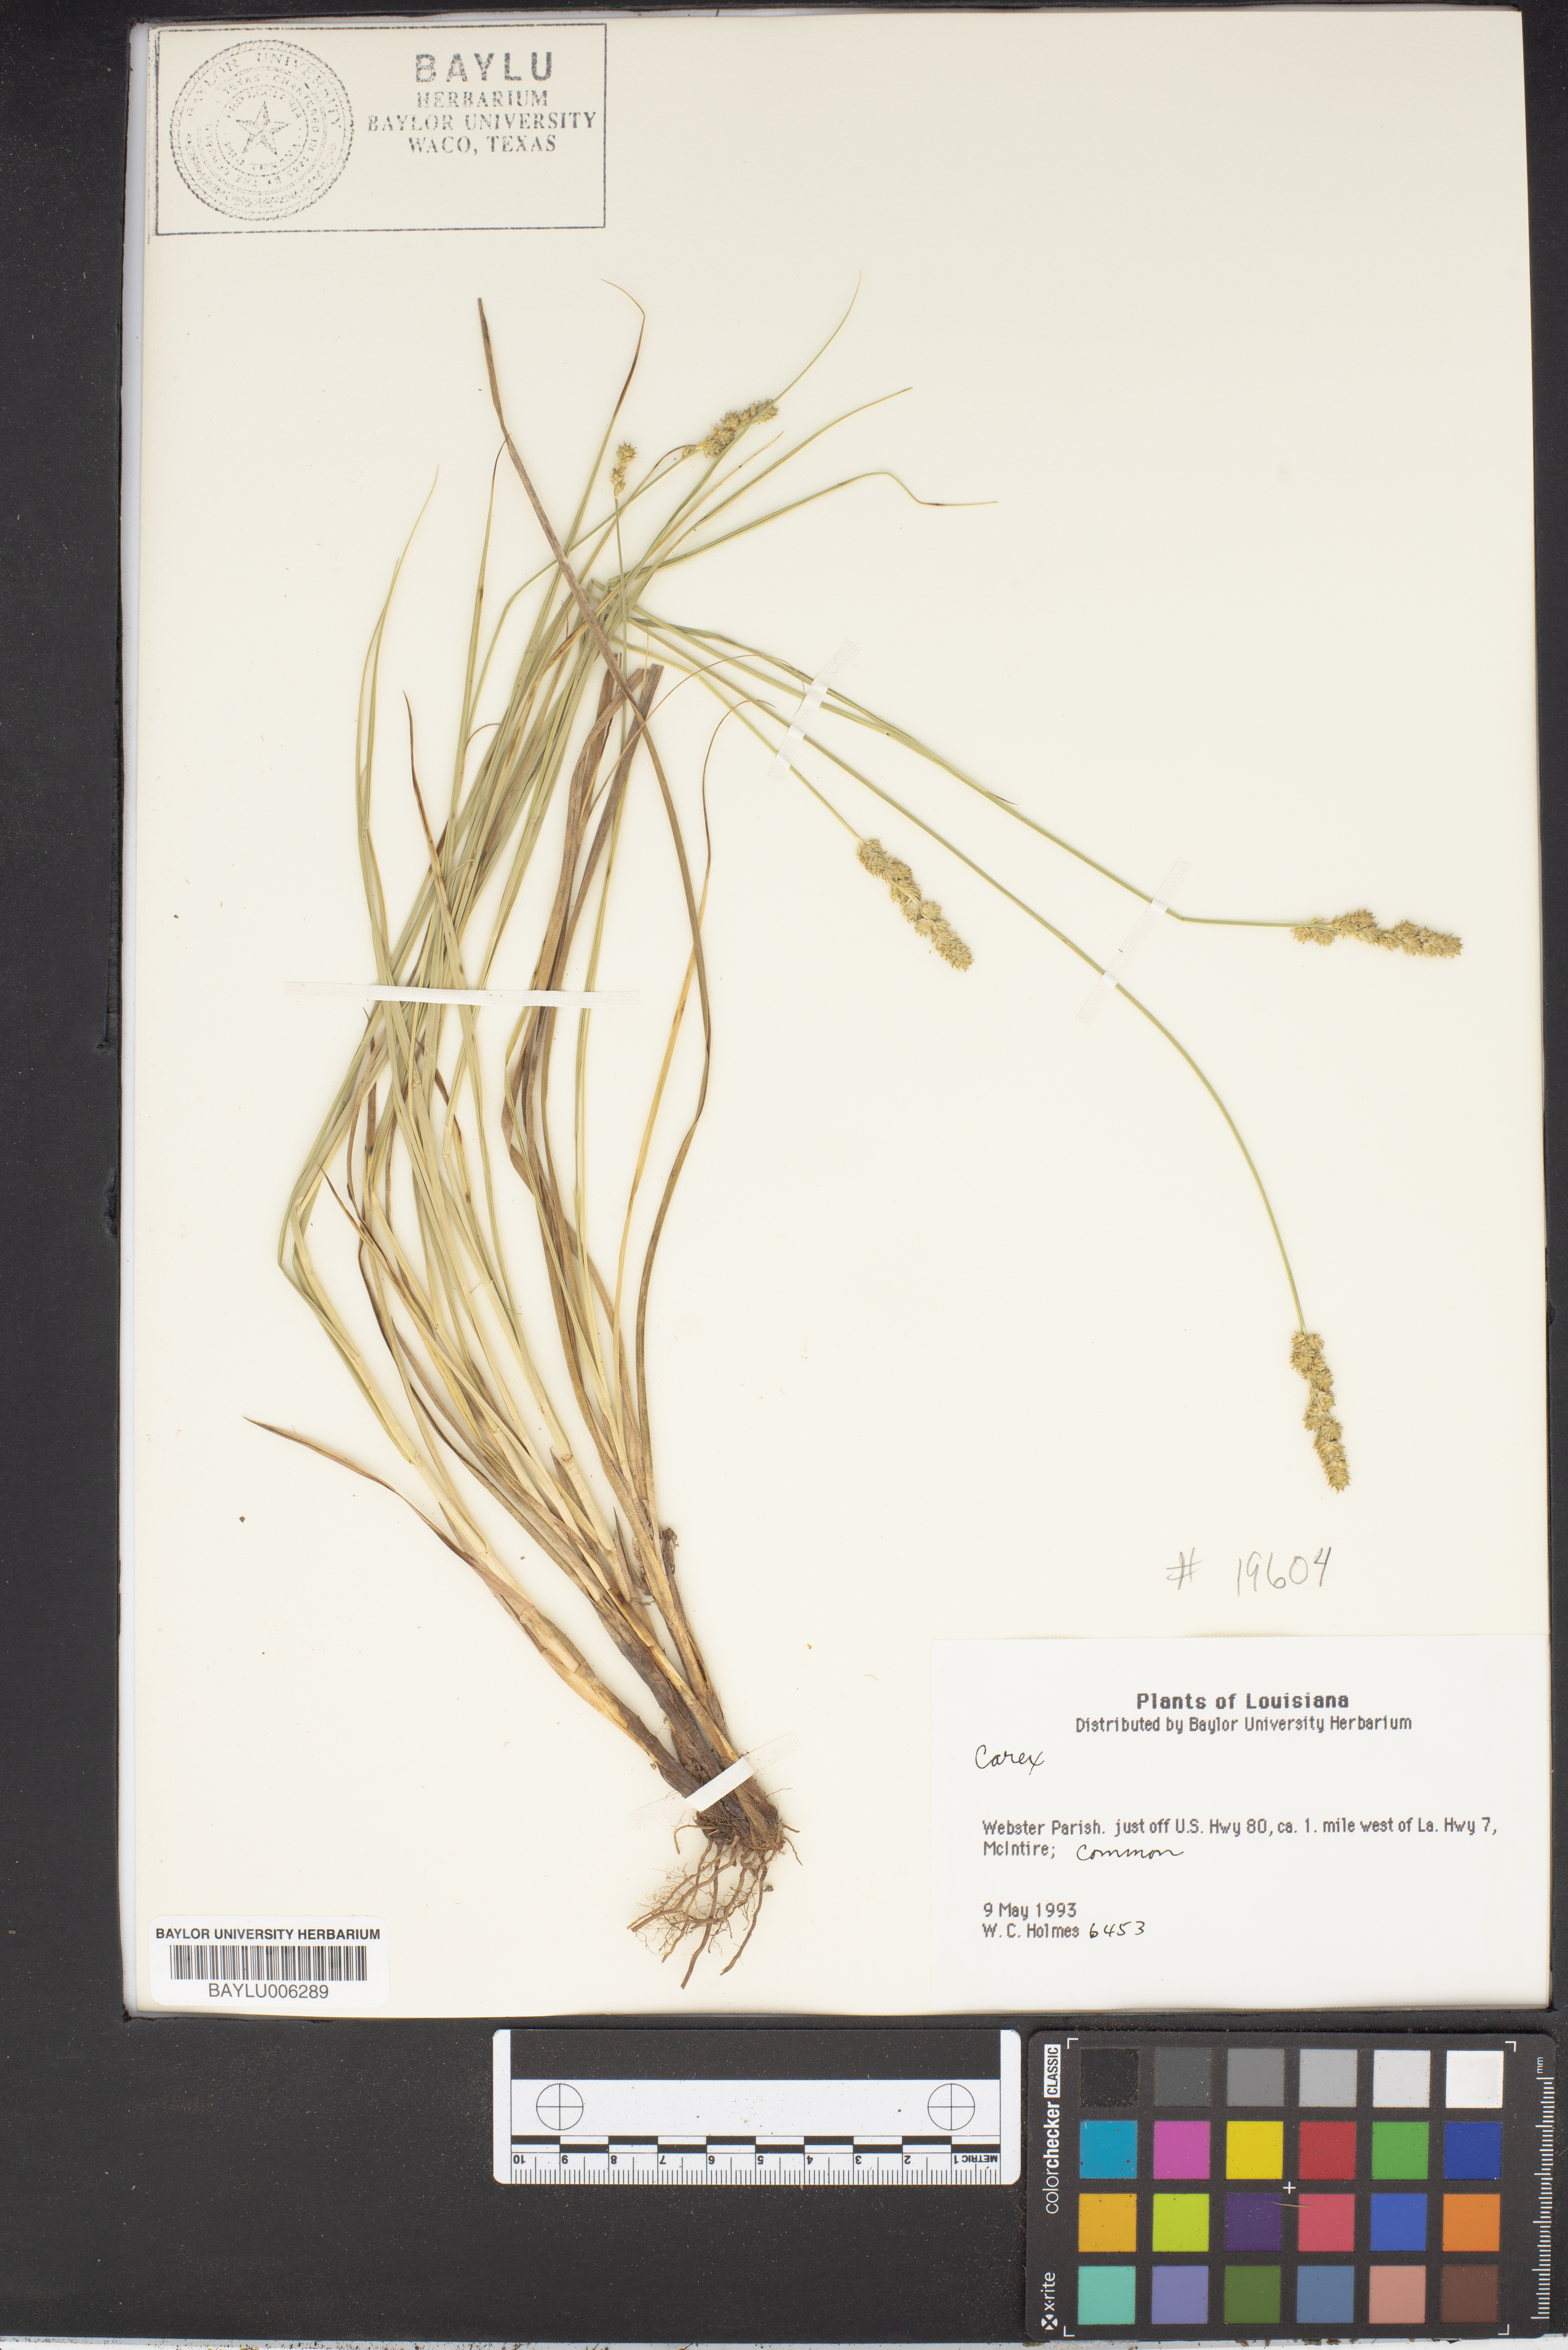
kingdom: Plantae
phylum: Tracheophyta
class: Liliopsida
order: Poales
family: Cyperaceae
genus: Carex
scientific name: Carex
